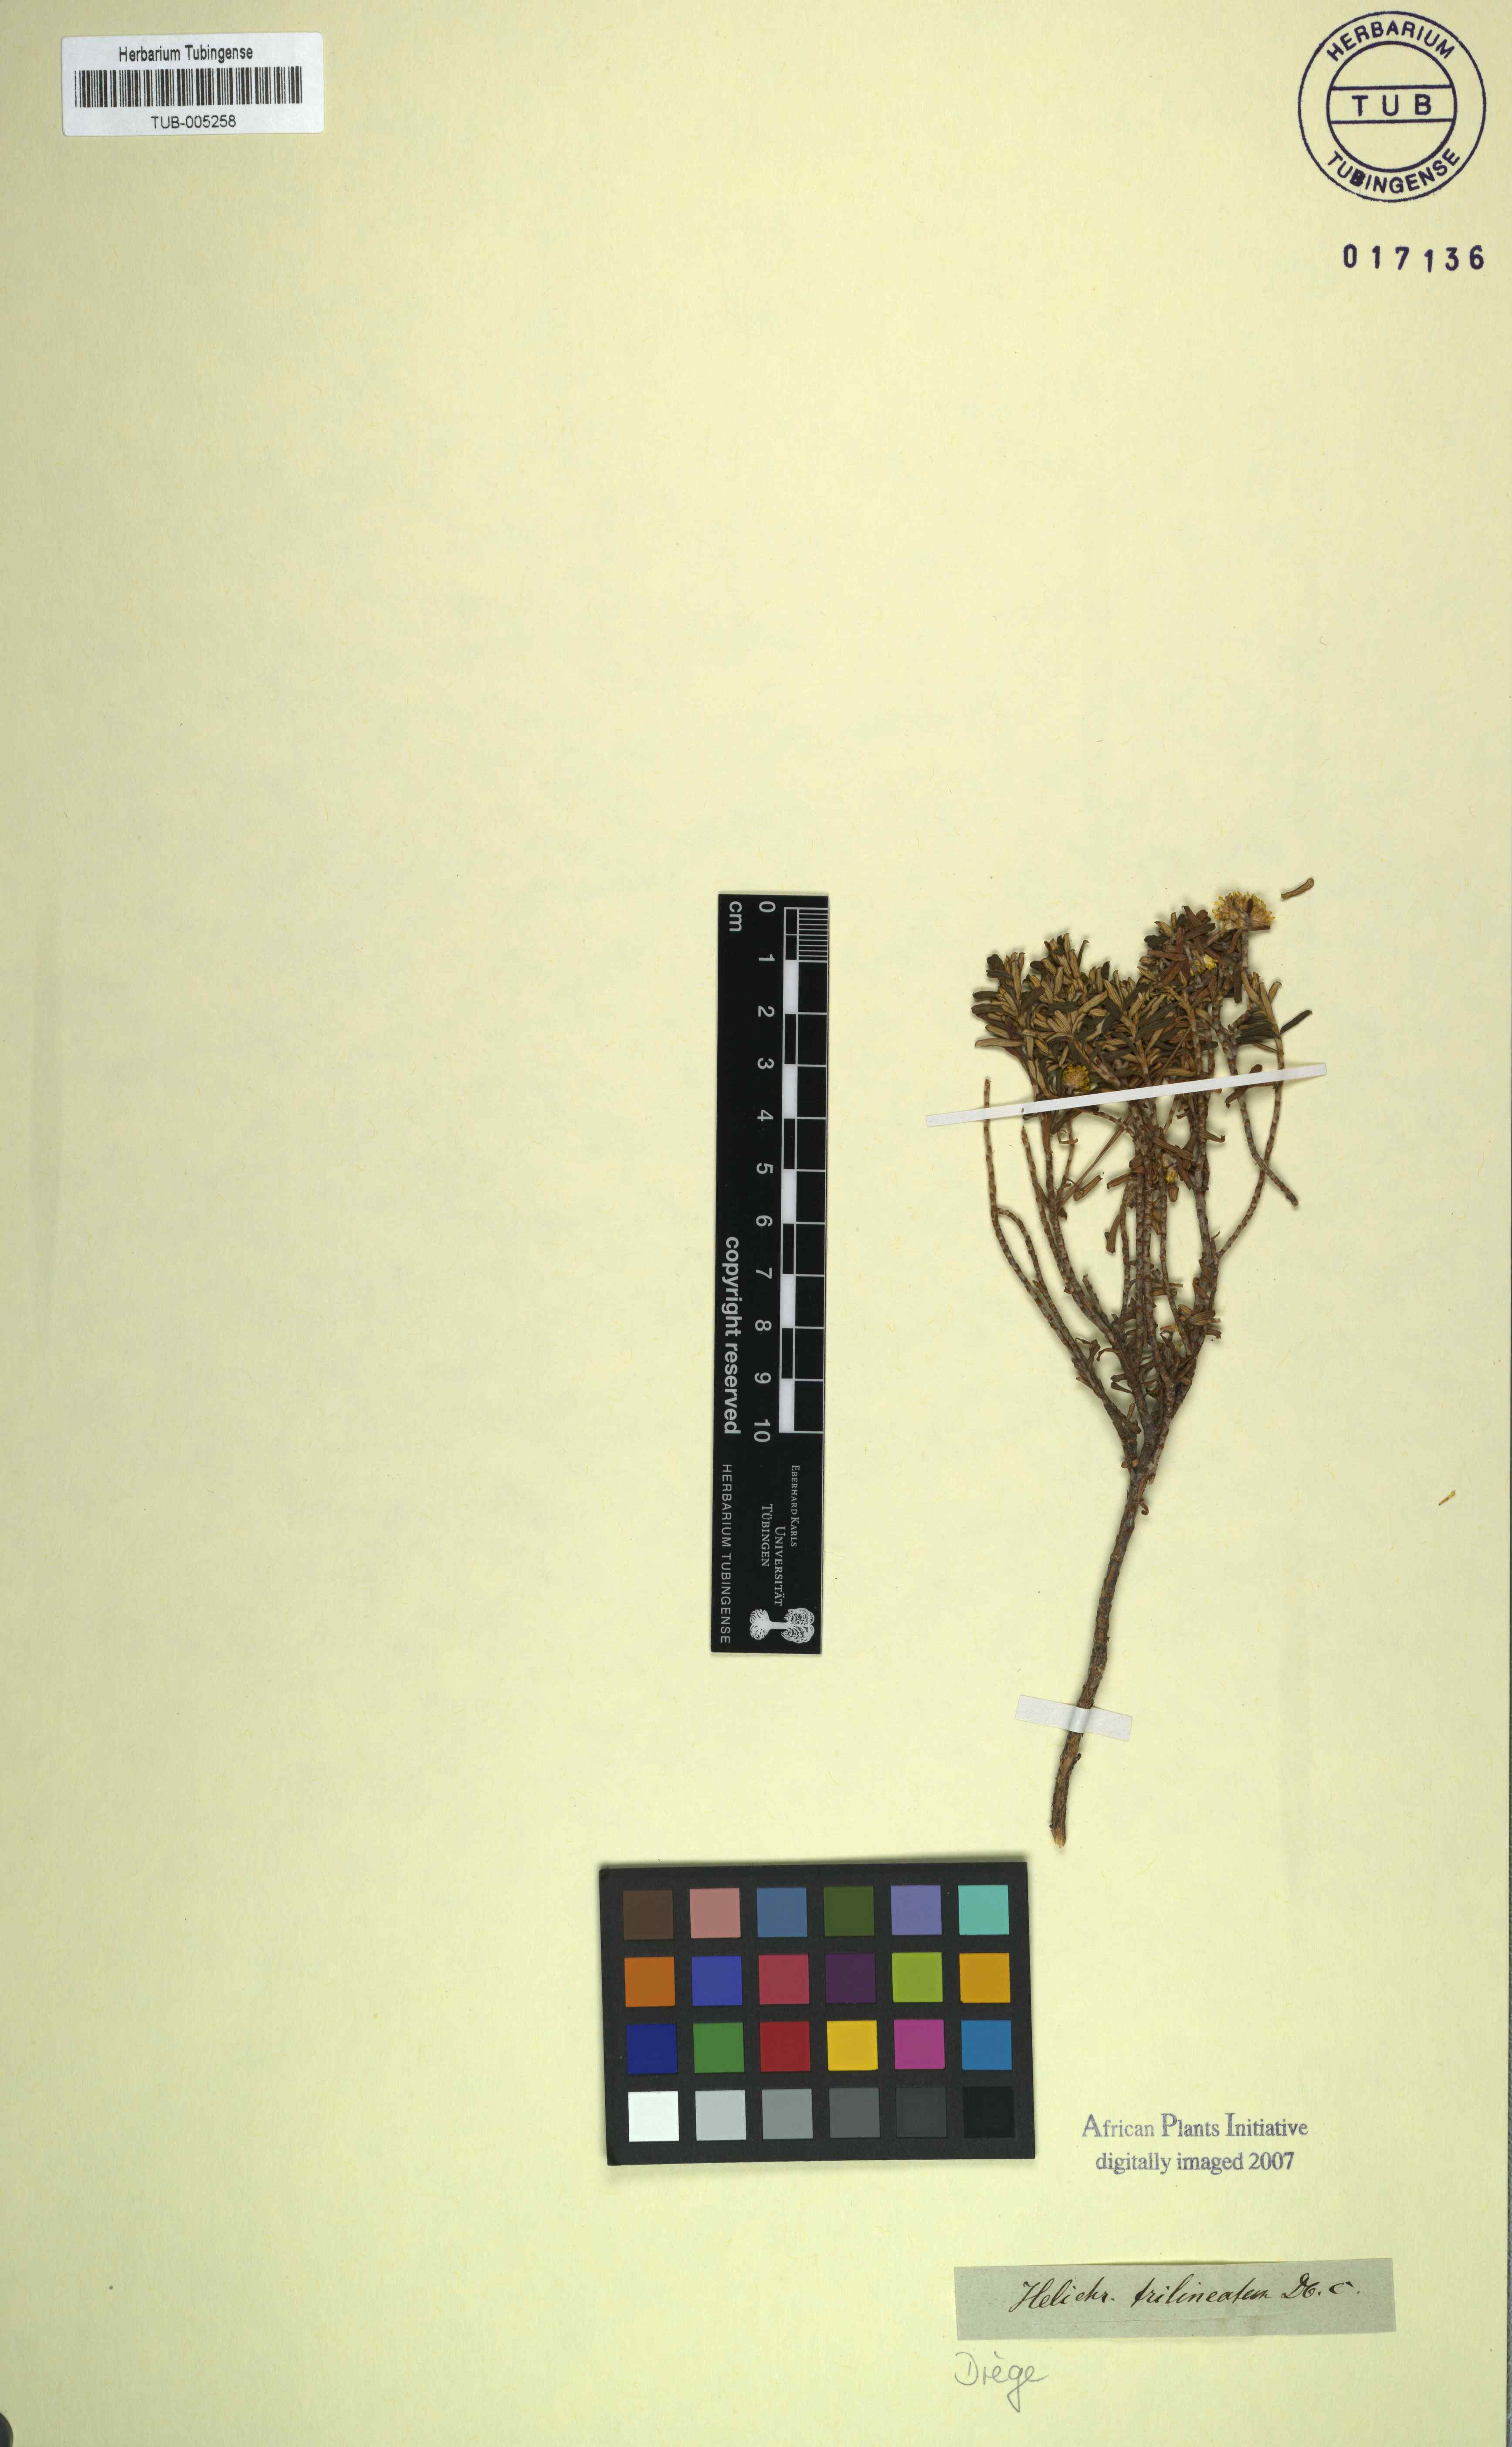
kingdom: Plantae
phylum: Tracheophyta
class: Magnoliopsida
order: Asterales
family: Asteraceae
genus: Helichrysum
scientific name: Helichrysum trilineatum
